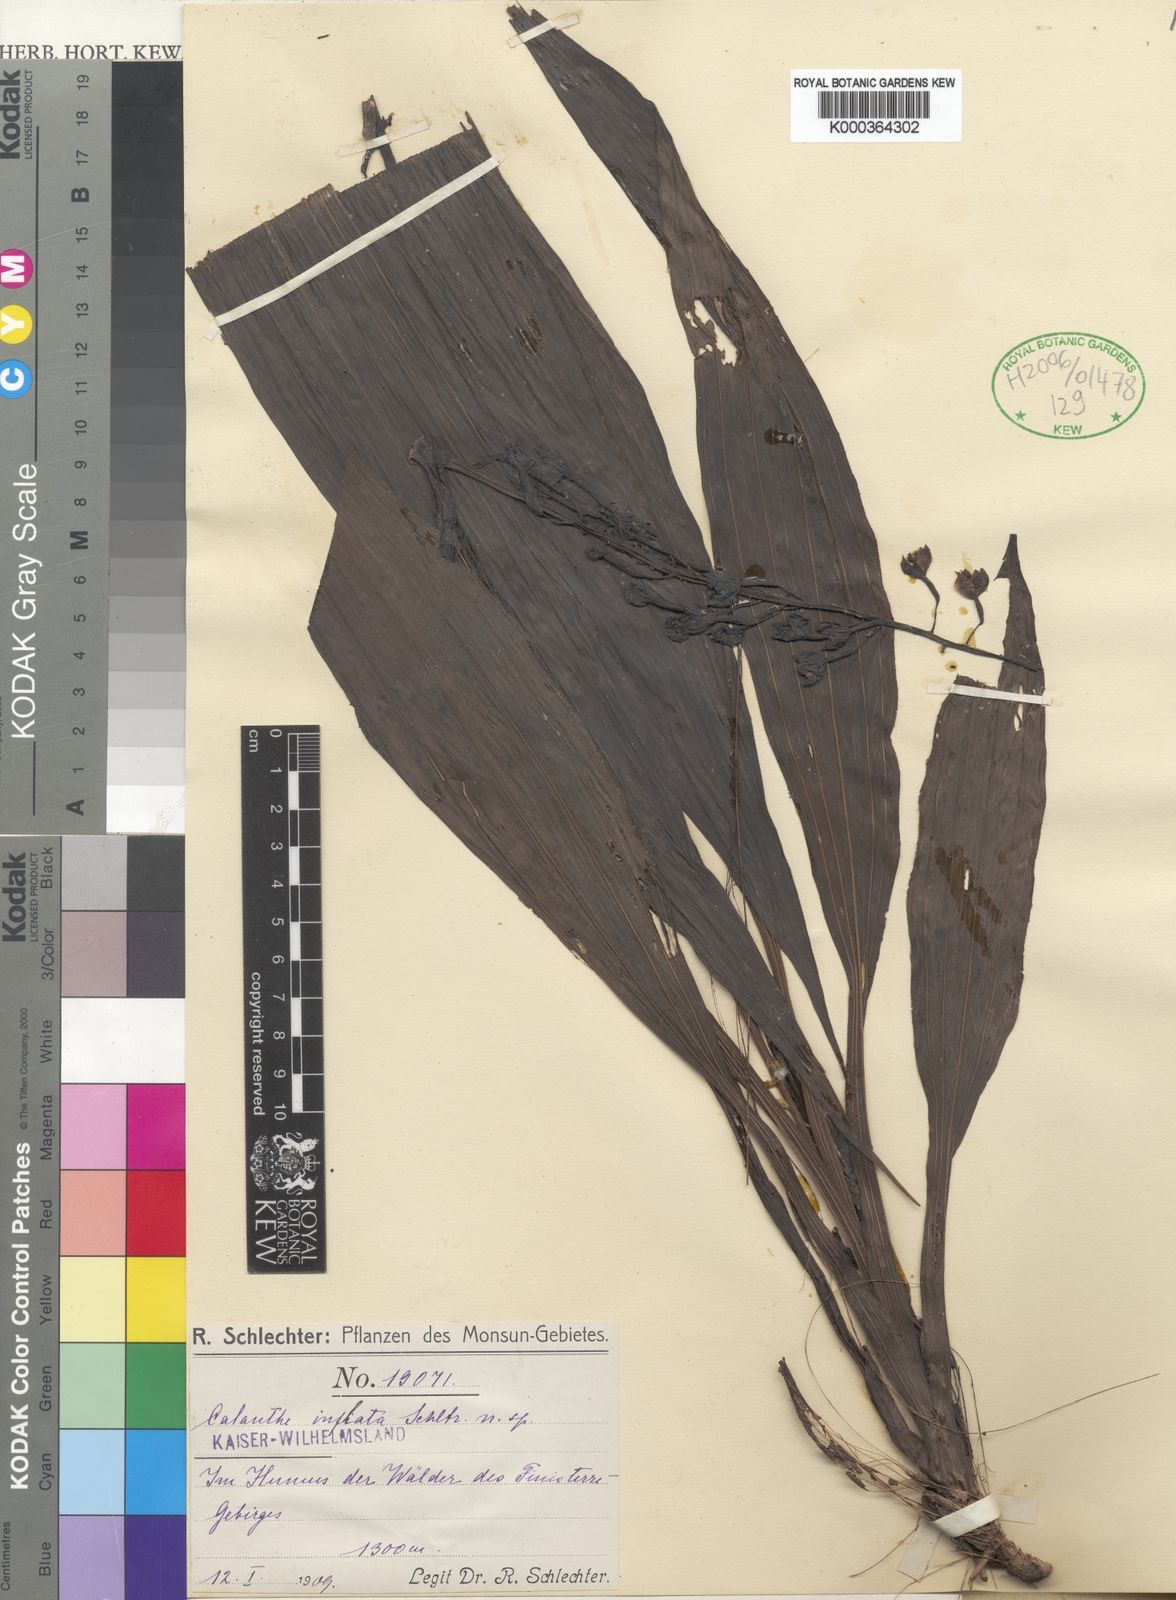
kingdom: Plantae
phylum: Tracheophyta
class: Liliopsida
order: Asparagales
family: Orchidaceae
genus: Calanthe
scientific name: Calanthe inflata
